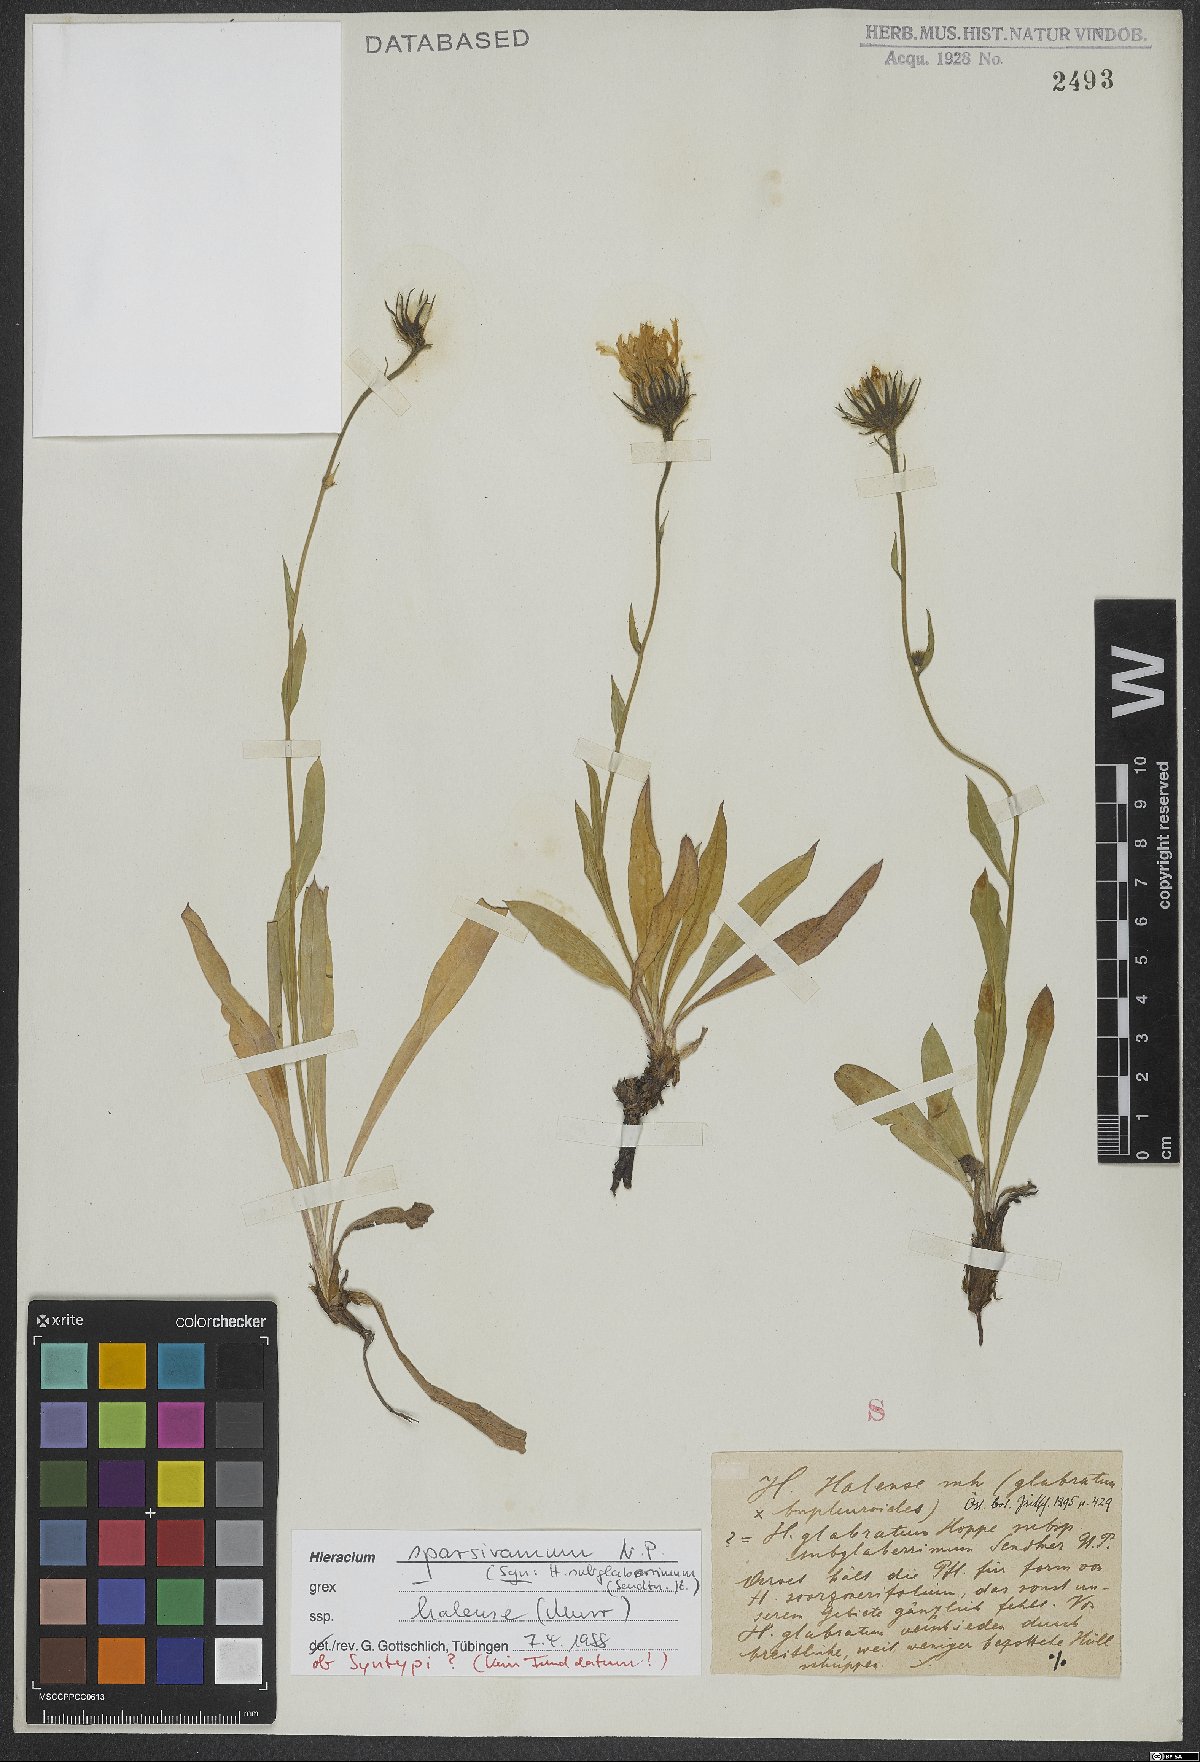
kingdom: Plantae
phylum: Tracheophyta
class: Magnoliopsida
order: Asterales
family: Asteraceae
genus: Hieracium
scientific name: Hieracium sparsiramum
